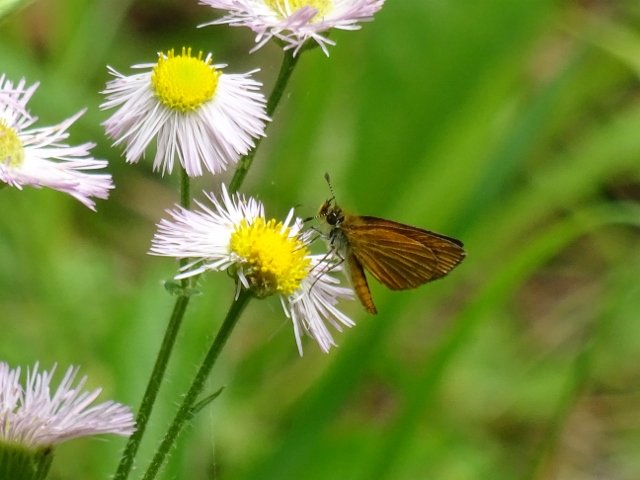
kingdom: Animalia
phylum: Arthropoda
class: Insecta
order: Lepidoptera
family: Hesperiidae
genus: Ancyloxypha
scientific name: Ancyloxypha numitor
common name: Least Skipper
